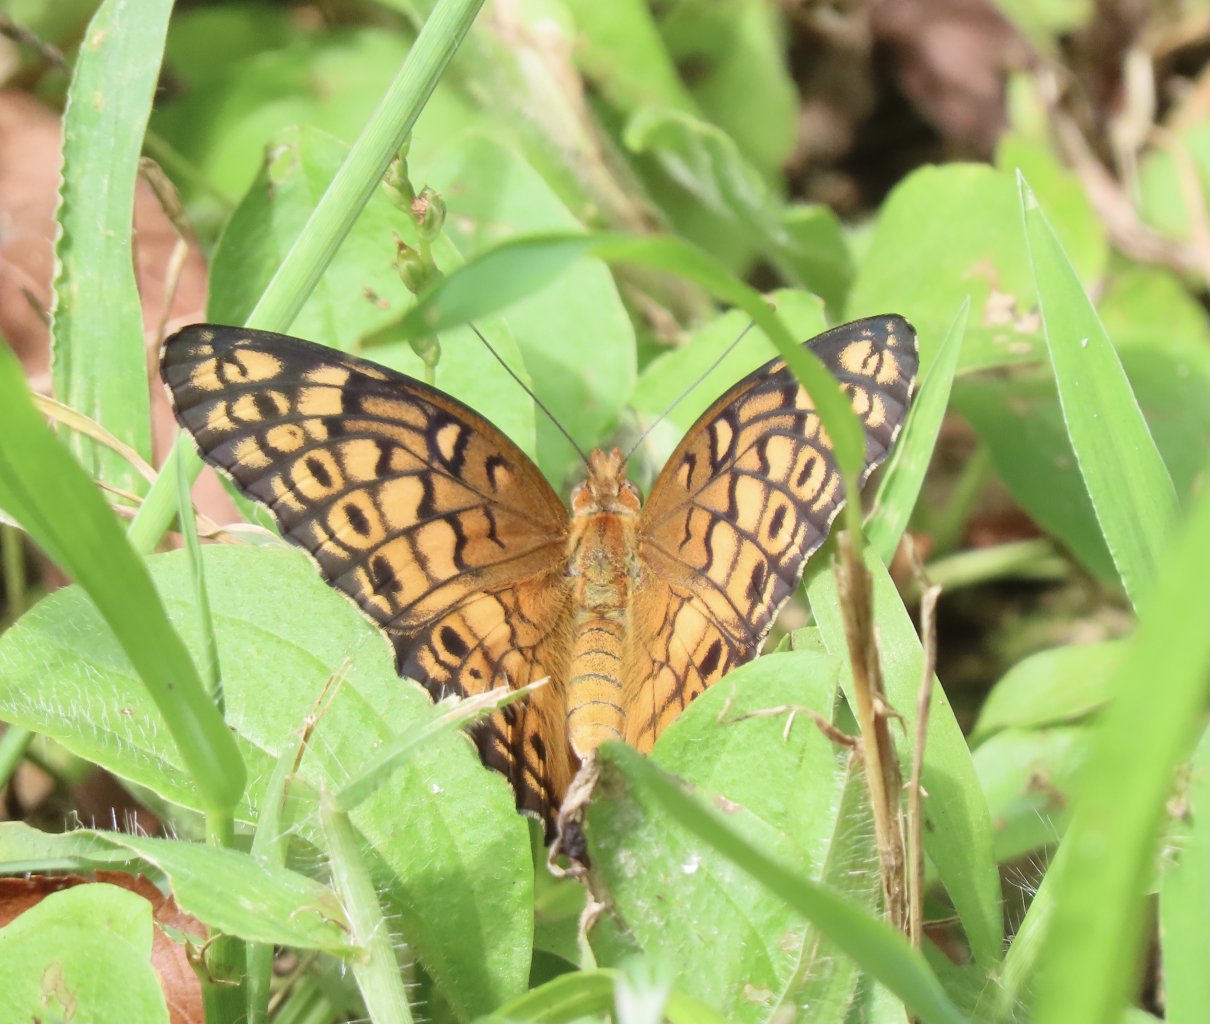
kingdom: Animalia
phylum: Arthropoda
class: Insecta
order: Lepidoptera
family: Nymphalidae
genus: Euptoieta
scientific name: Euptoieta claudia
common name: Variegated Fritillary
